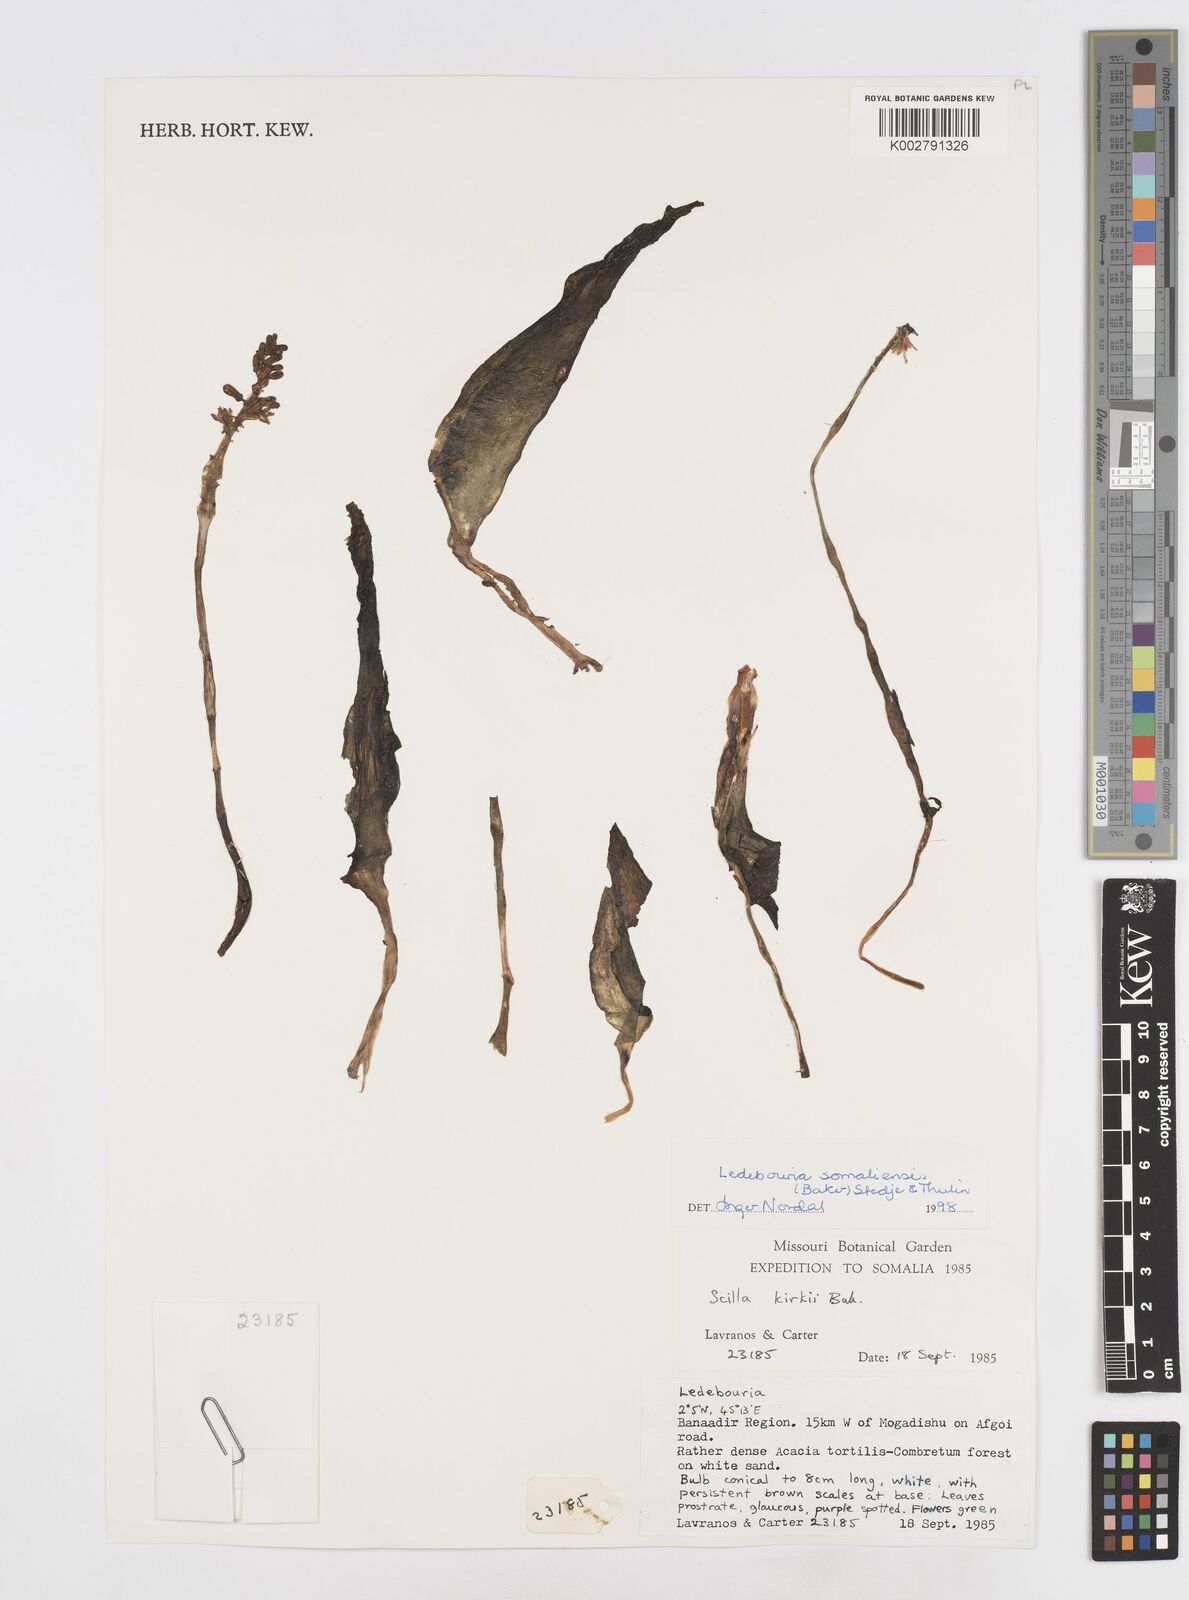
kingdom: Plantae
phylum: Tracheophyta
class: Liliopsida
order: Asparagales
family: Asparagaceae
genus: Scilla
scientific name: Scilla
